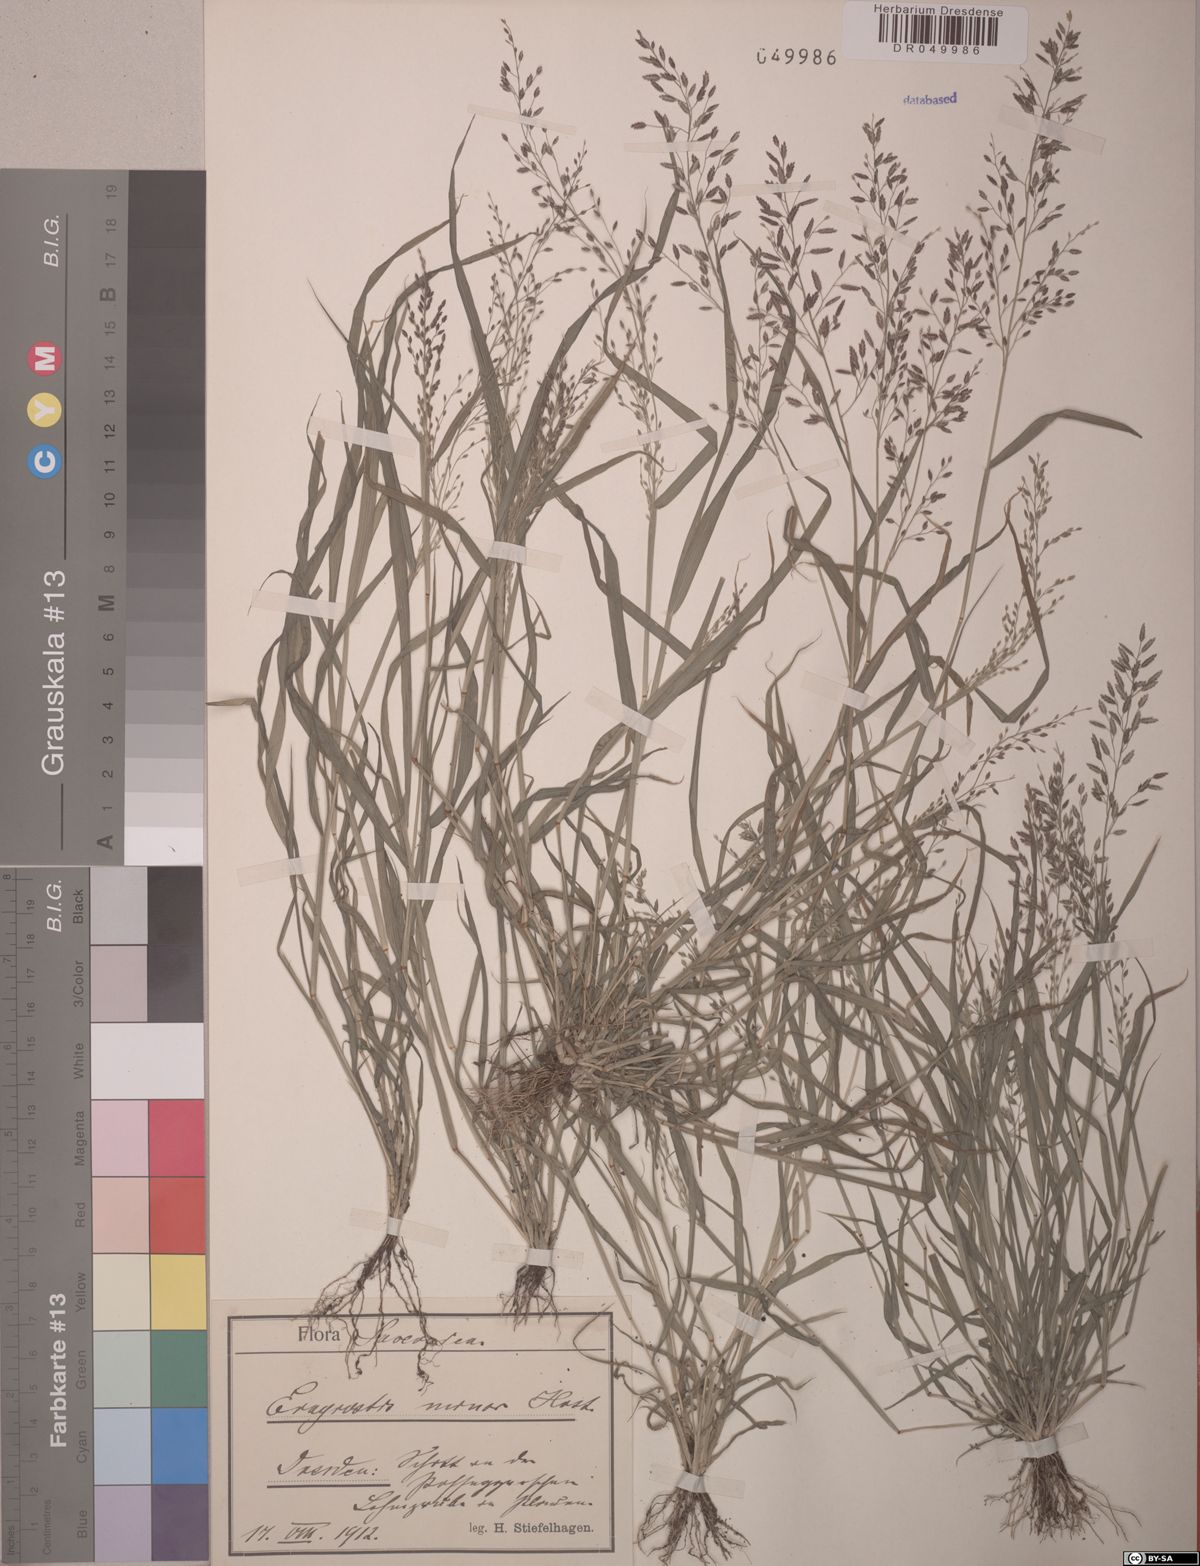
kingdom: Plantae
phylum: Tracheophyta
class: Liliopsida
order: Poales
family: Poaceae
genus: Eragrostis
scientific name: Eragrostis minor
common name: Small love-grass
